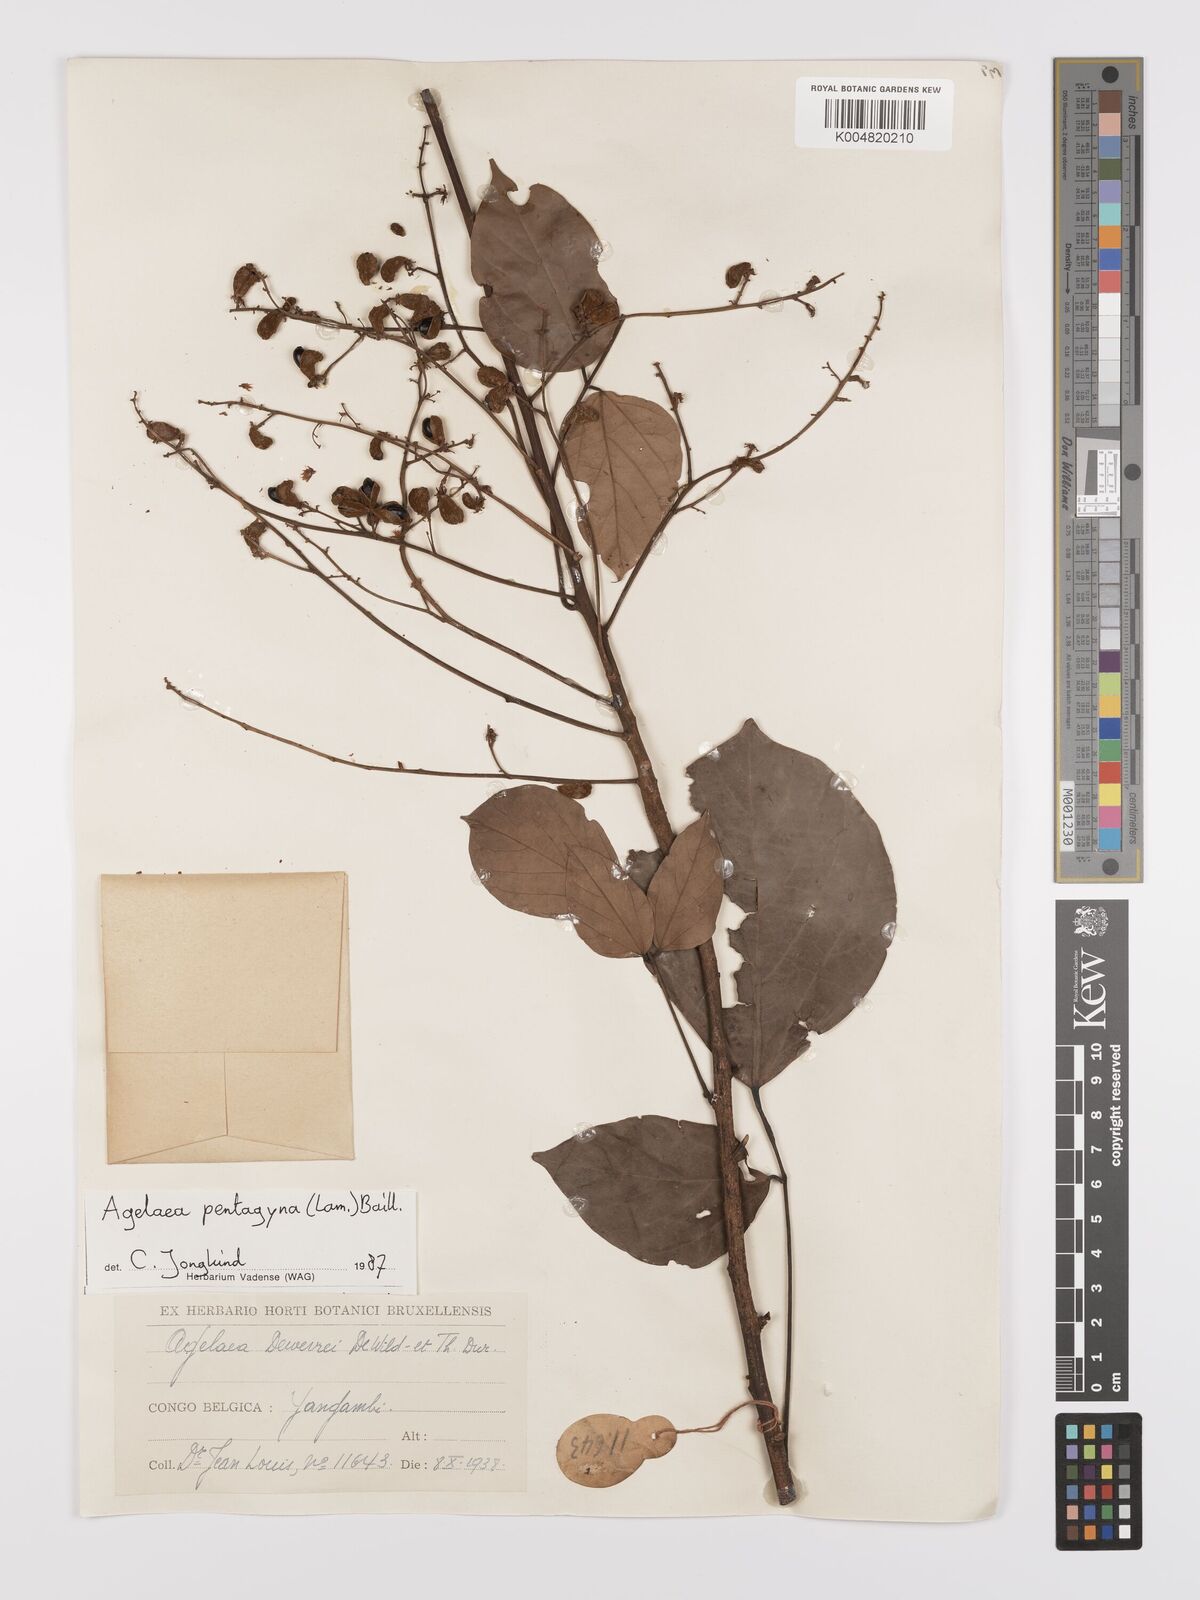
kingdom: Plantae
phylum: Tracheophyta
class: Magnoliopsida
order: Oxalidales
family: Connaraceae
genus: Agelaea
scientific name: Agelaea pentagyna
